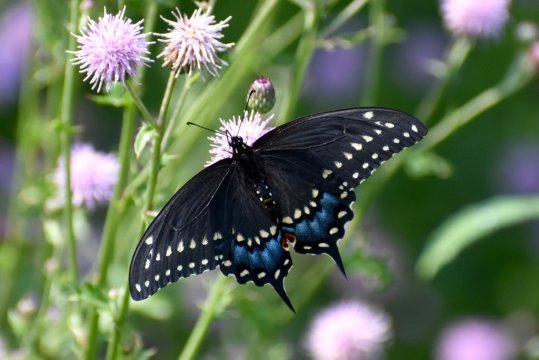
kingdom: Animalia
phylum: Arthropoda
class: Insecta
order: Lepidoptera
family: Papilionidae
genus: Papilio
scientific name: Papilio polyxenes
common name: Black Swallowtail
